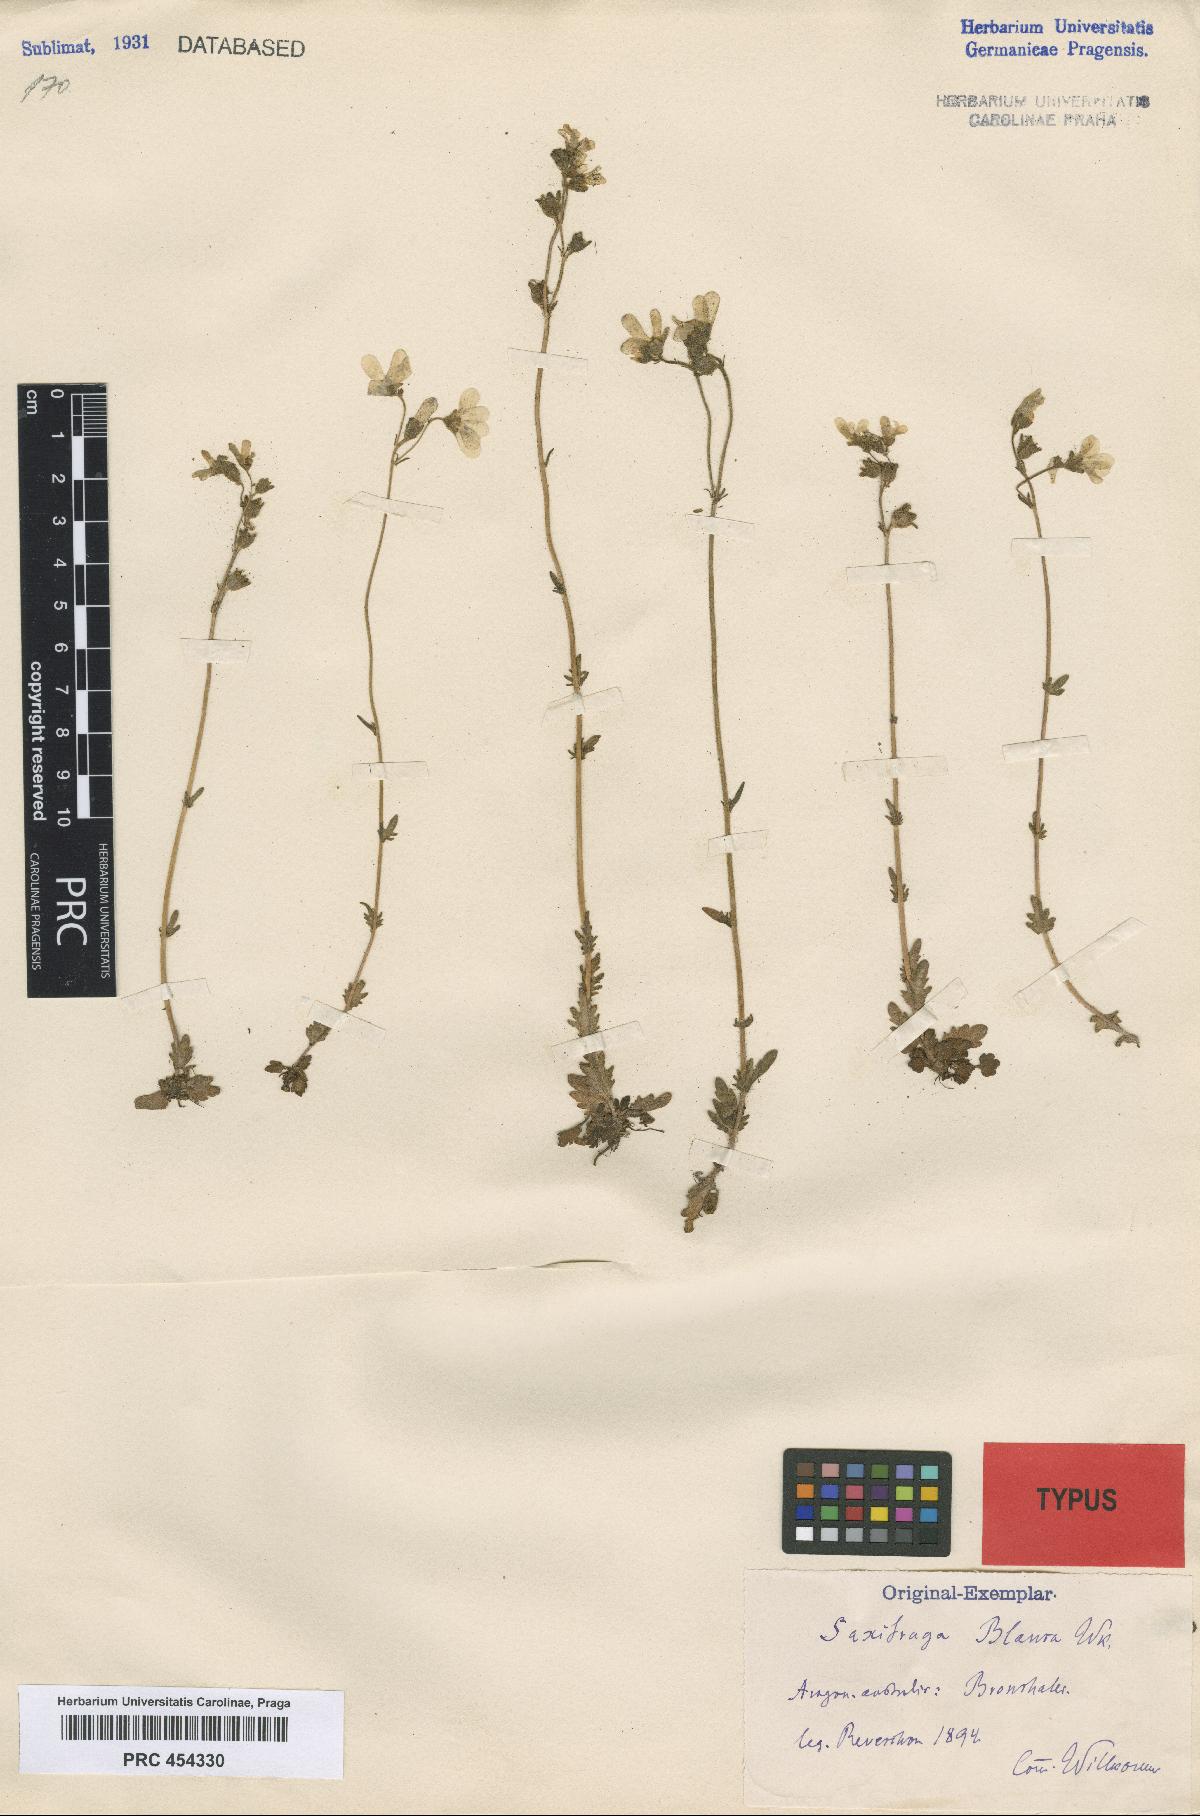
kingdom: Plantae
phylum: Tracheophyta
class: Magnoliopsida
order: Saxifragales
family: Saxifragaceae
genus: Saxifraga
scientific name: Saxifraga carpetana
